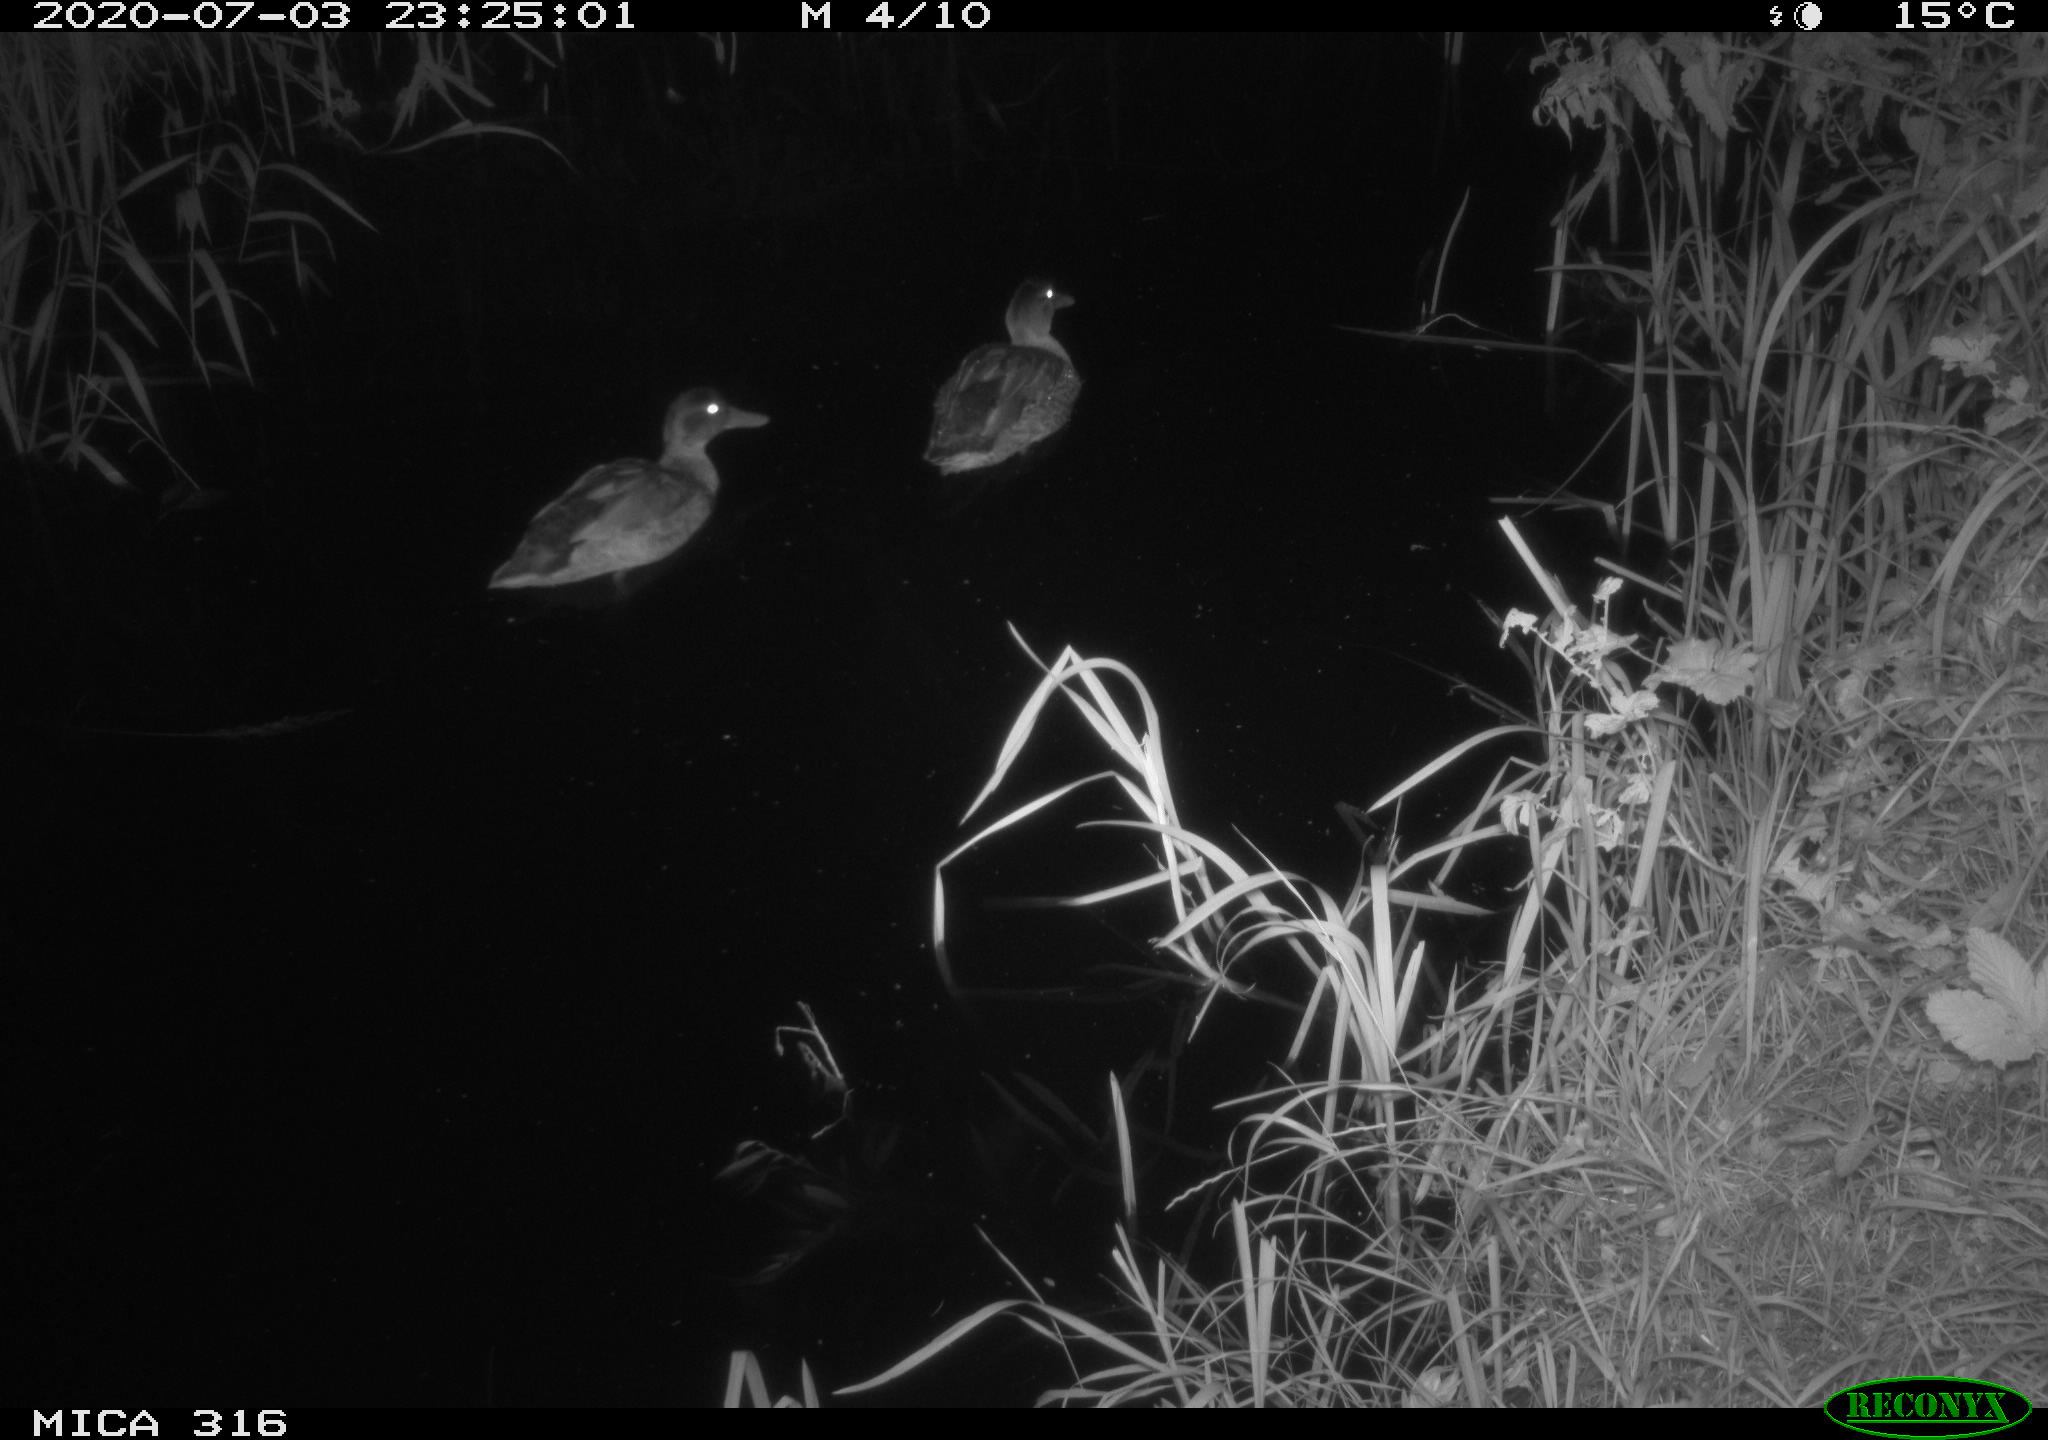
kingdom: Animalia
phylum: Chordata
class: Aves
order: Anseriformes
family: Anatidae
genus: Anas
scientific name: Anas platyrhynchos
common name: Mallard
